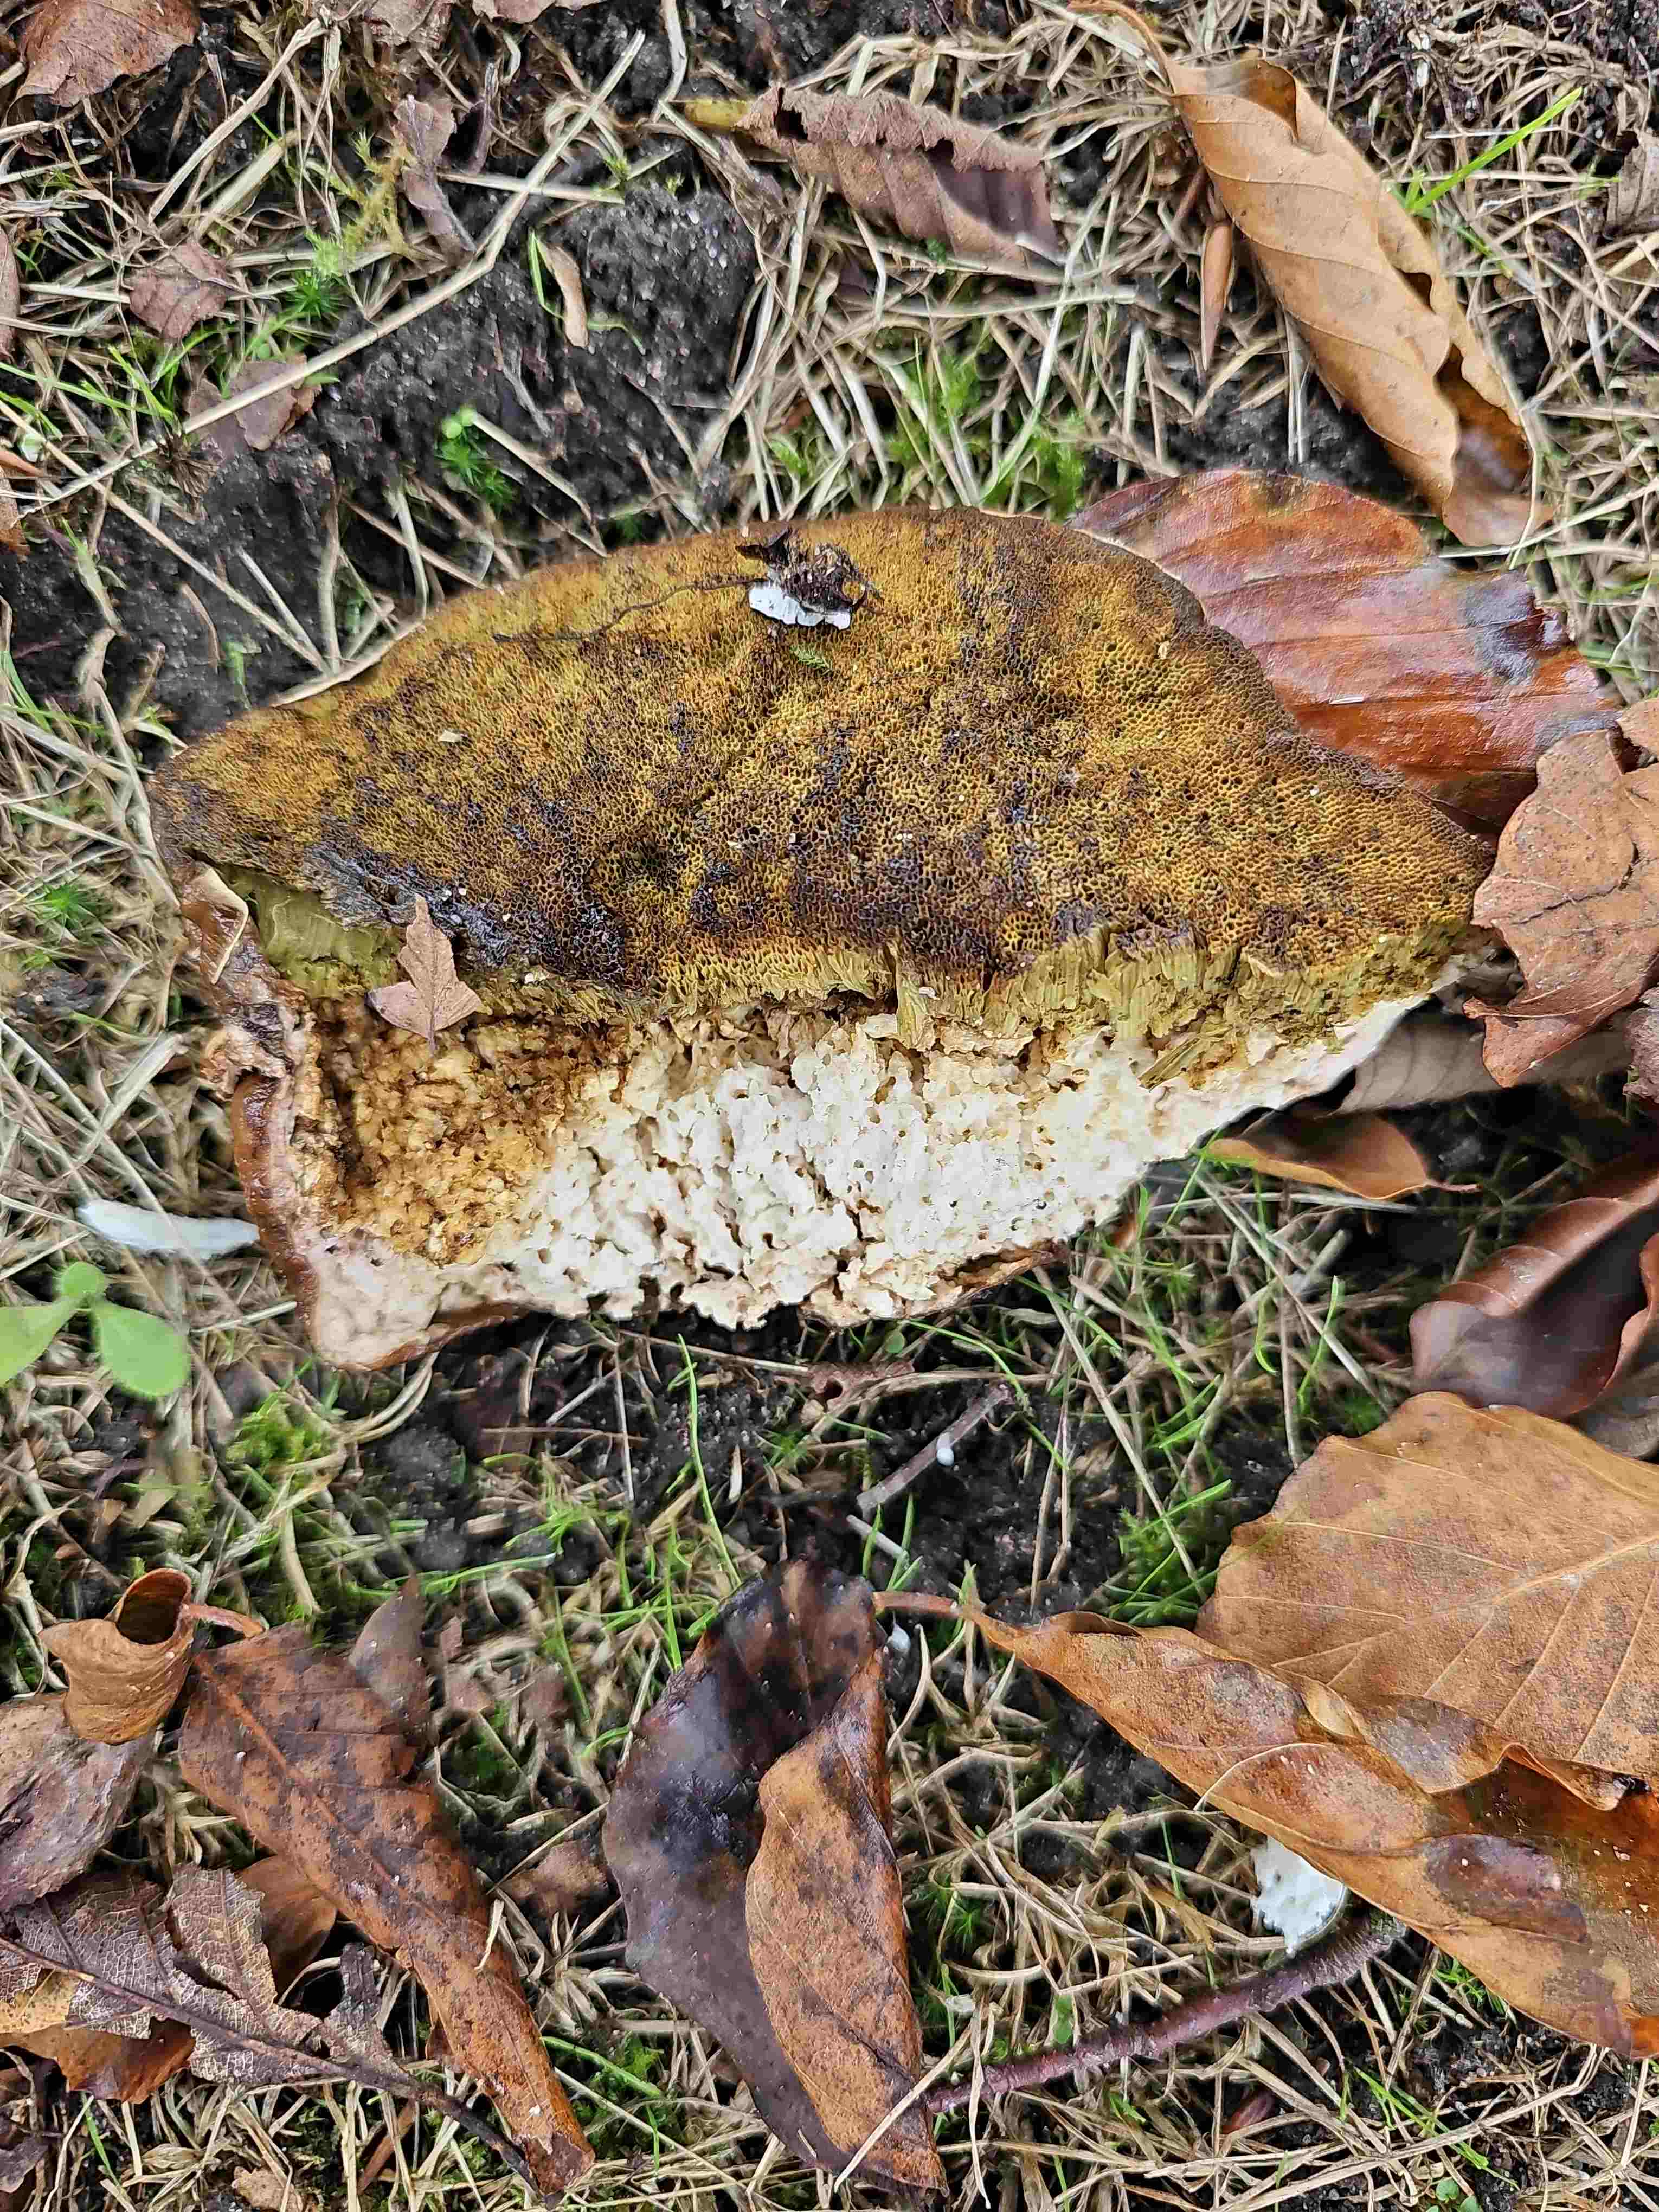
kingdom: Fungi
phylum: Basidiomycota
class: Agaricomycetes
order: Boletales
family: Boletaceae
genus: Boletus
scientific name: Boletus edulis
